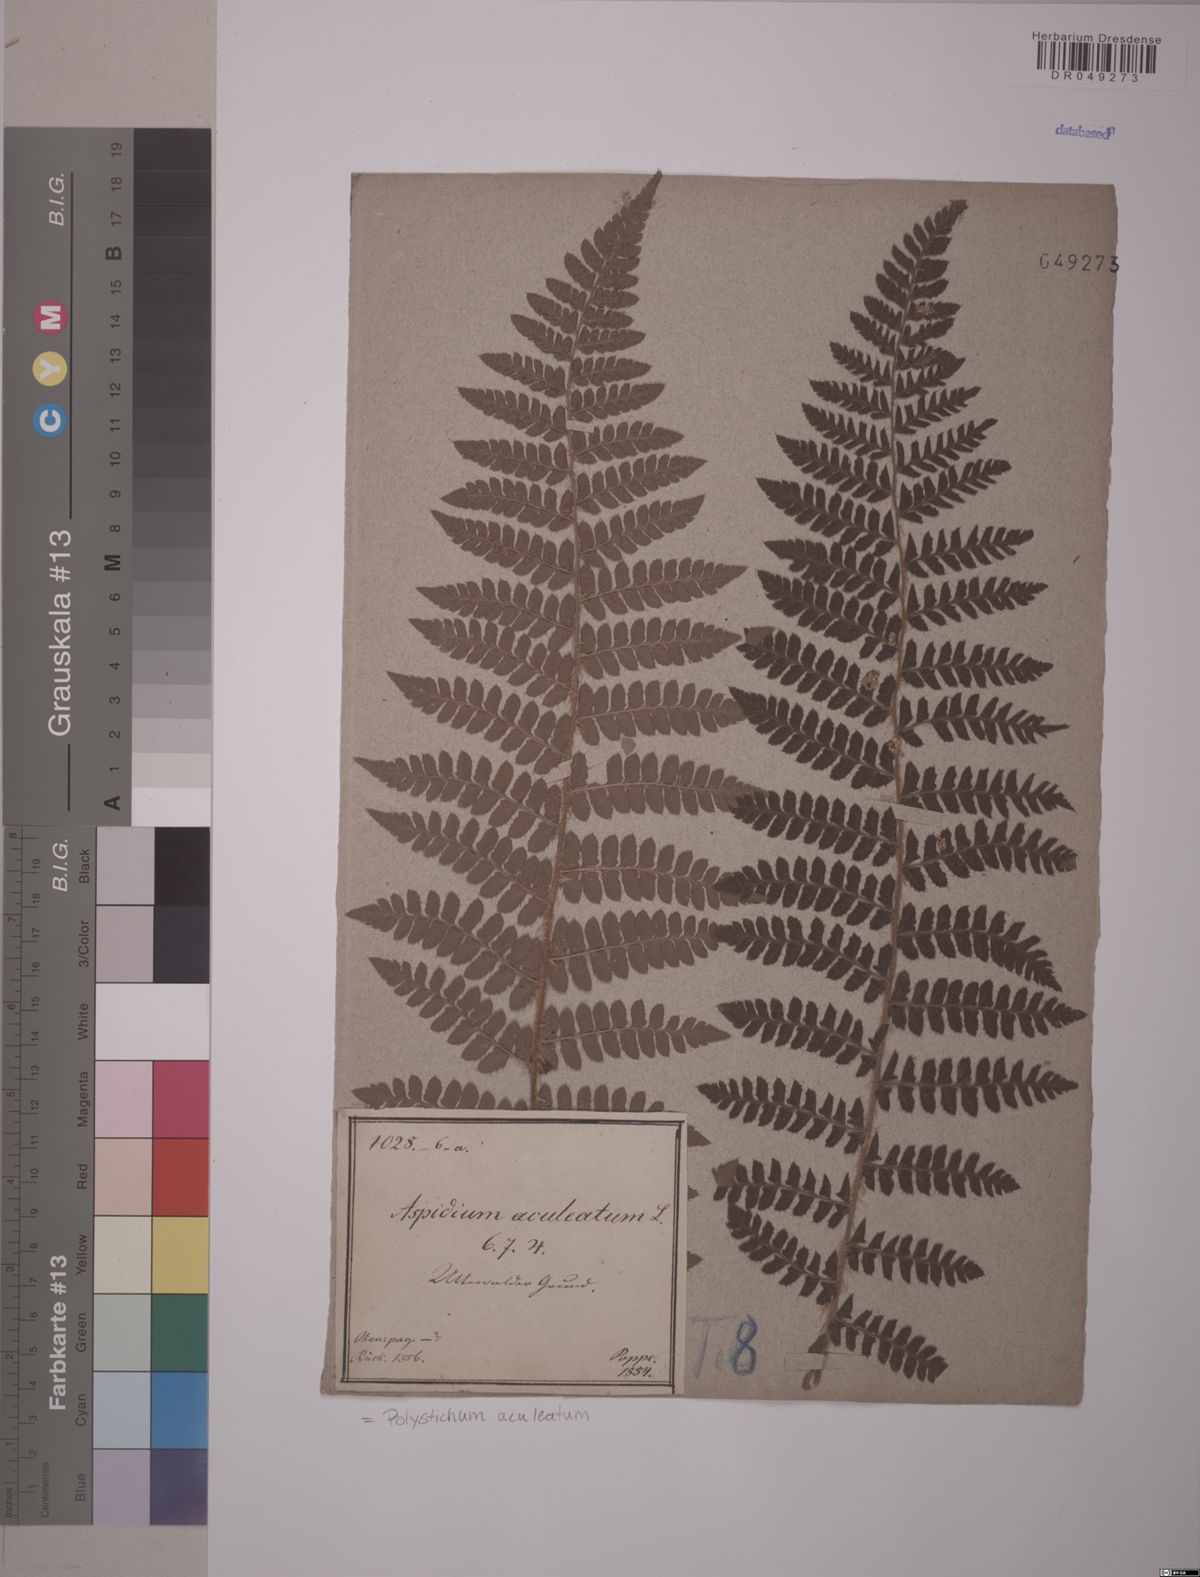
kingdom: Plantae
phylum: Tracheophyta
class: Polypodiopsida
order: Polypodiales
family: Dryopteridaceae
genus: Polystichum
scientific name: Polystichum aculeatum
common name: Hard shield-fern
